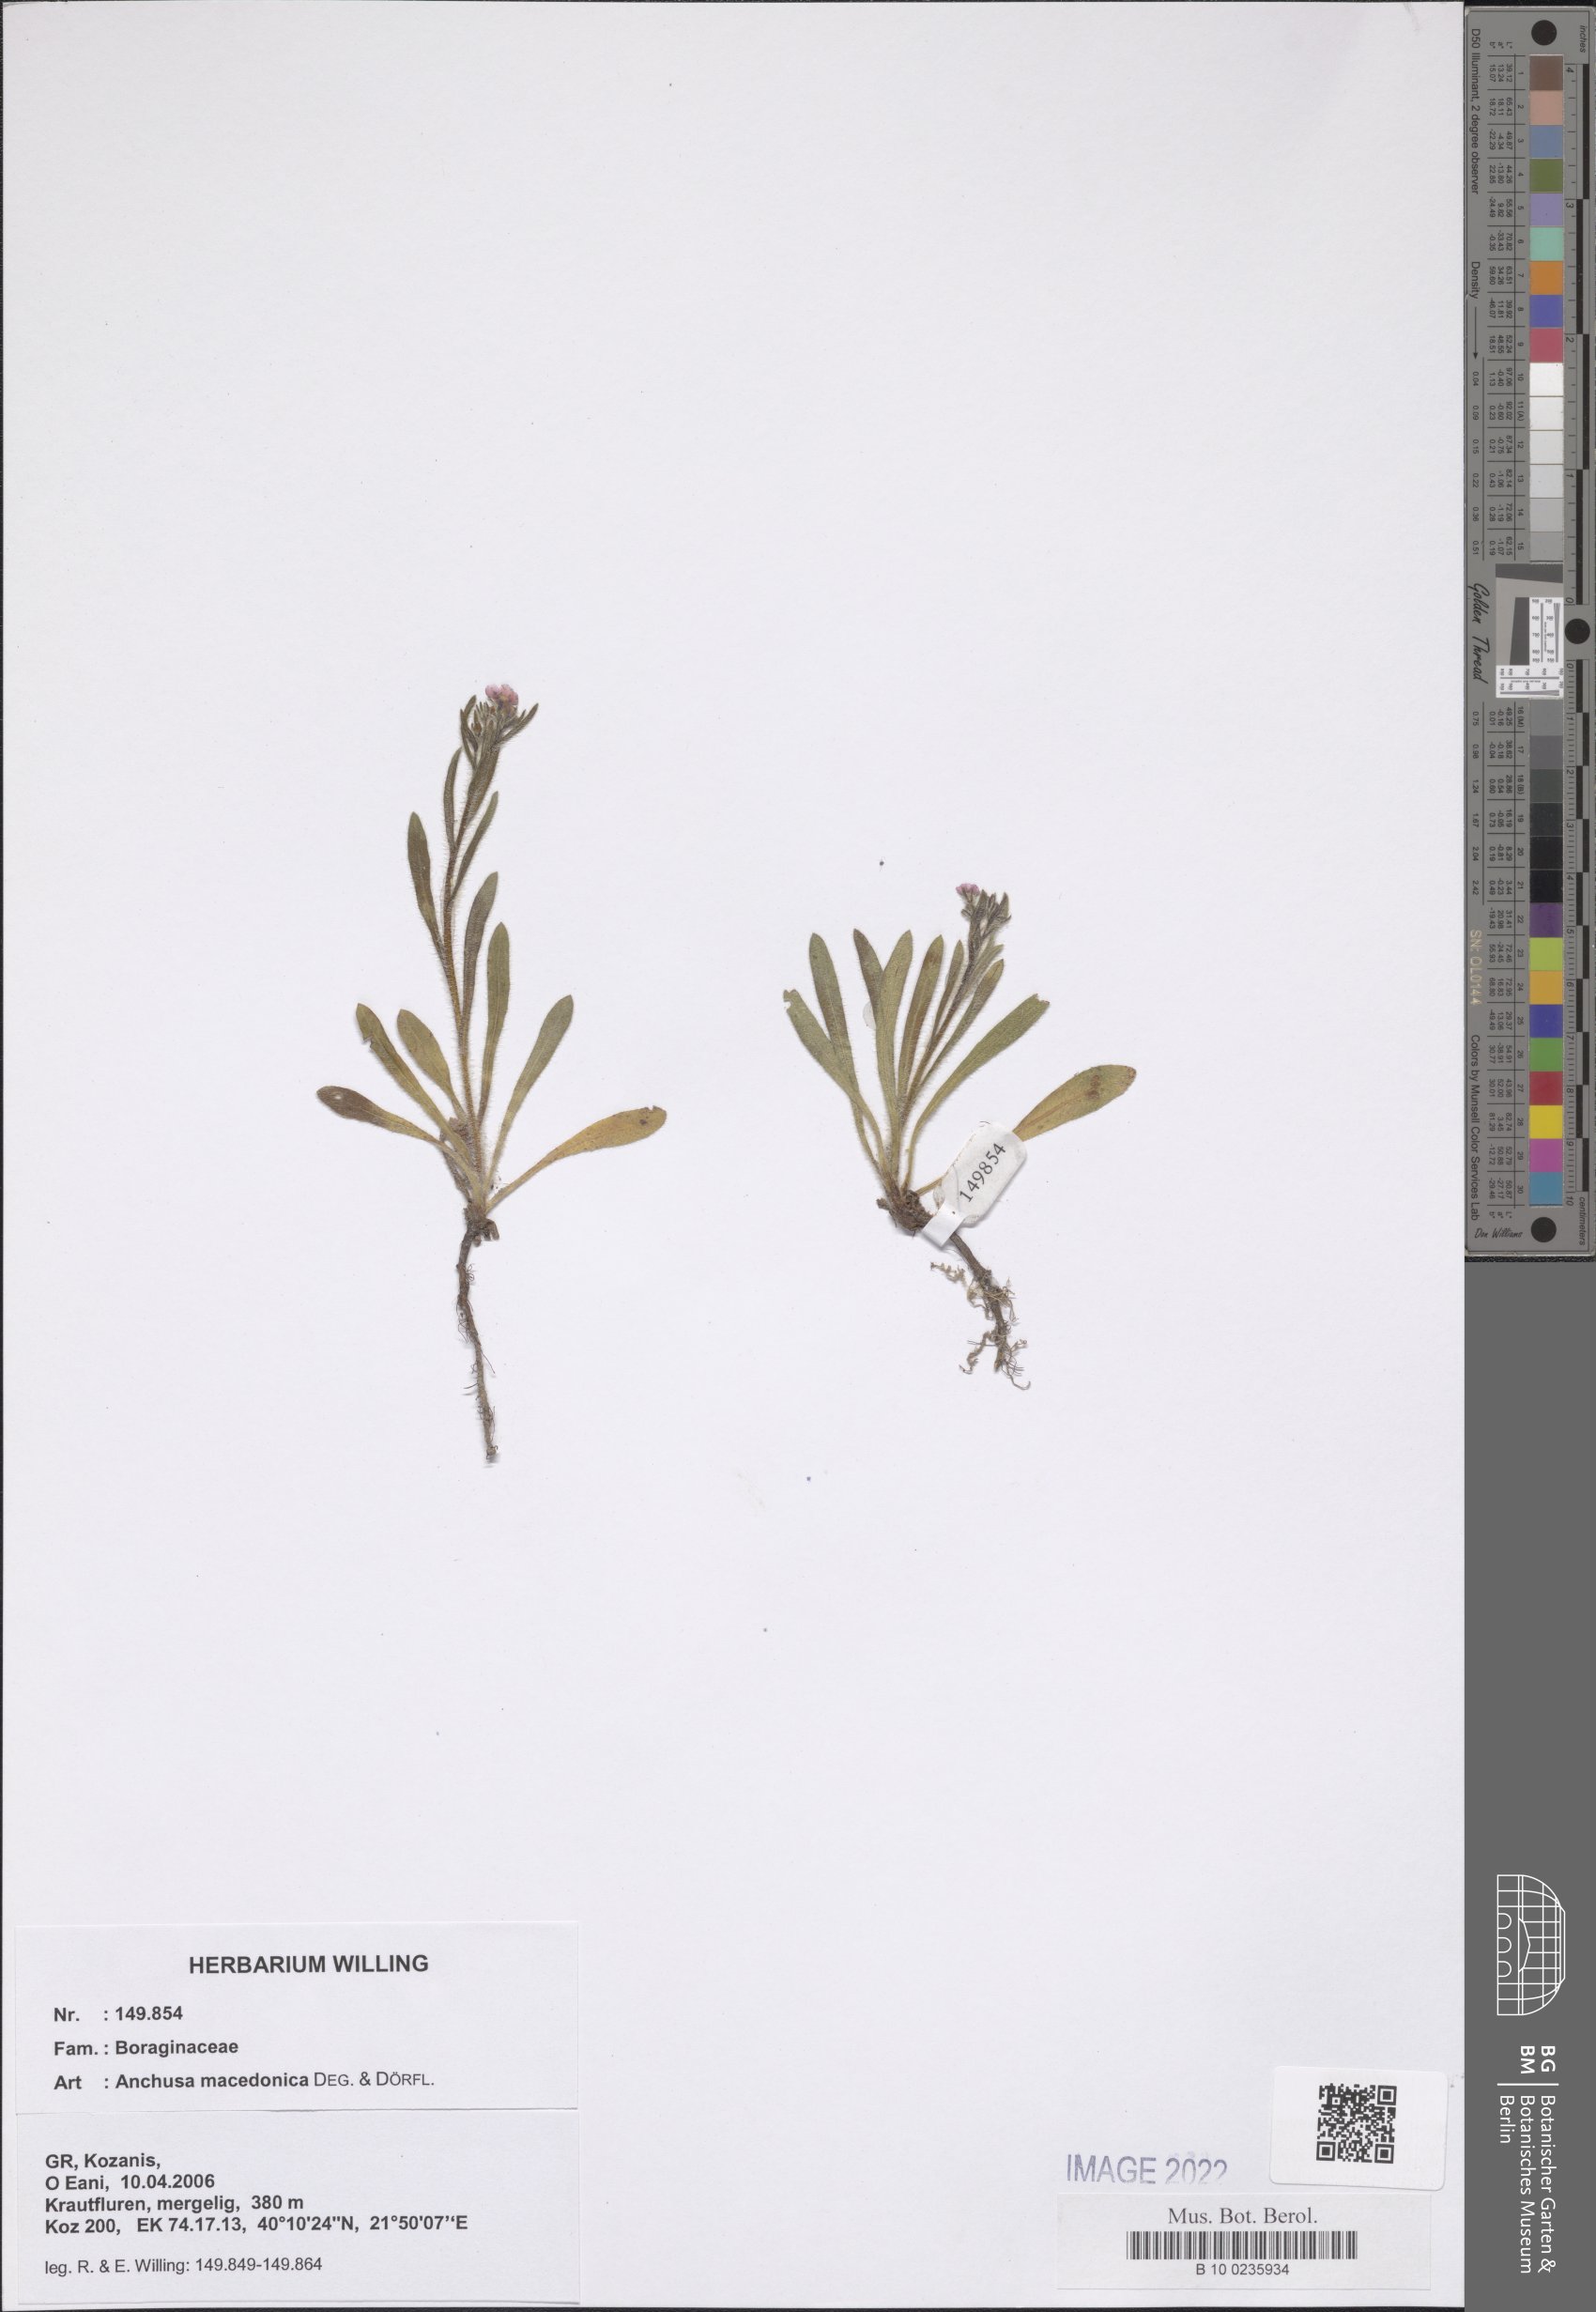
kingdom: Plantae
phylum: Tracheophyta
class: Magnoliopsida
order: Boraginales
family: Boraginaceae
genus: Anchusa
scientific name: Anchusa officinalis
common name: Alkanet
